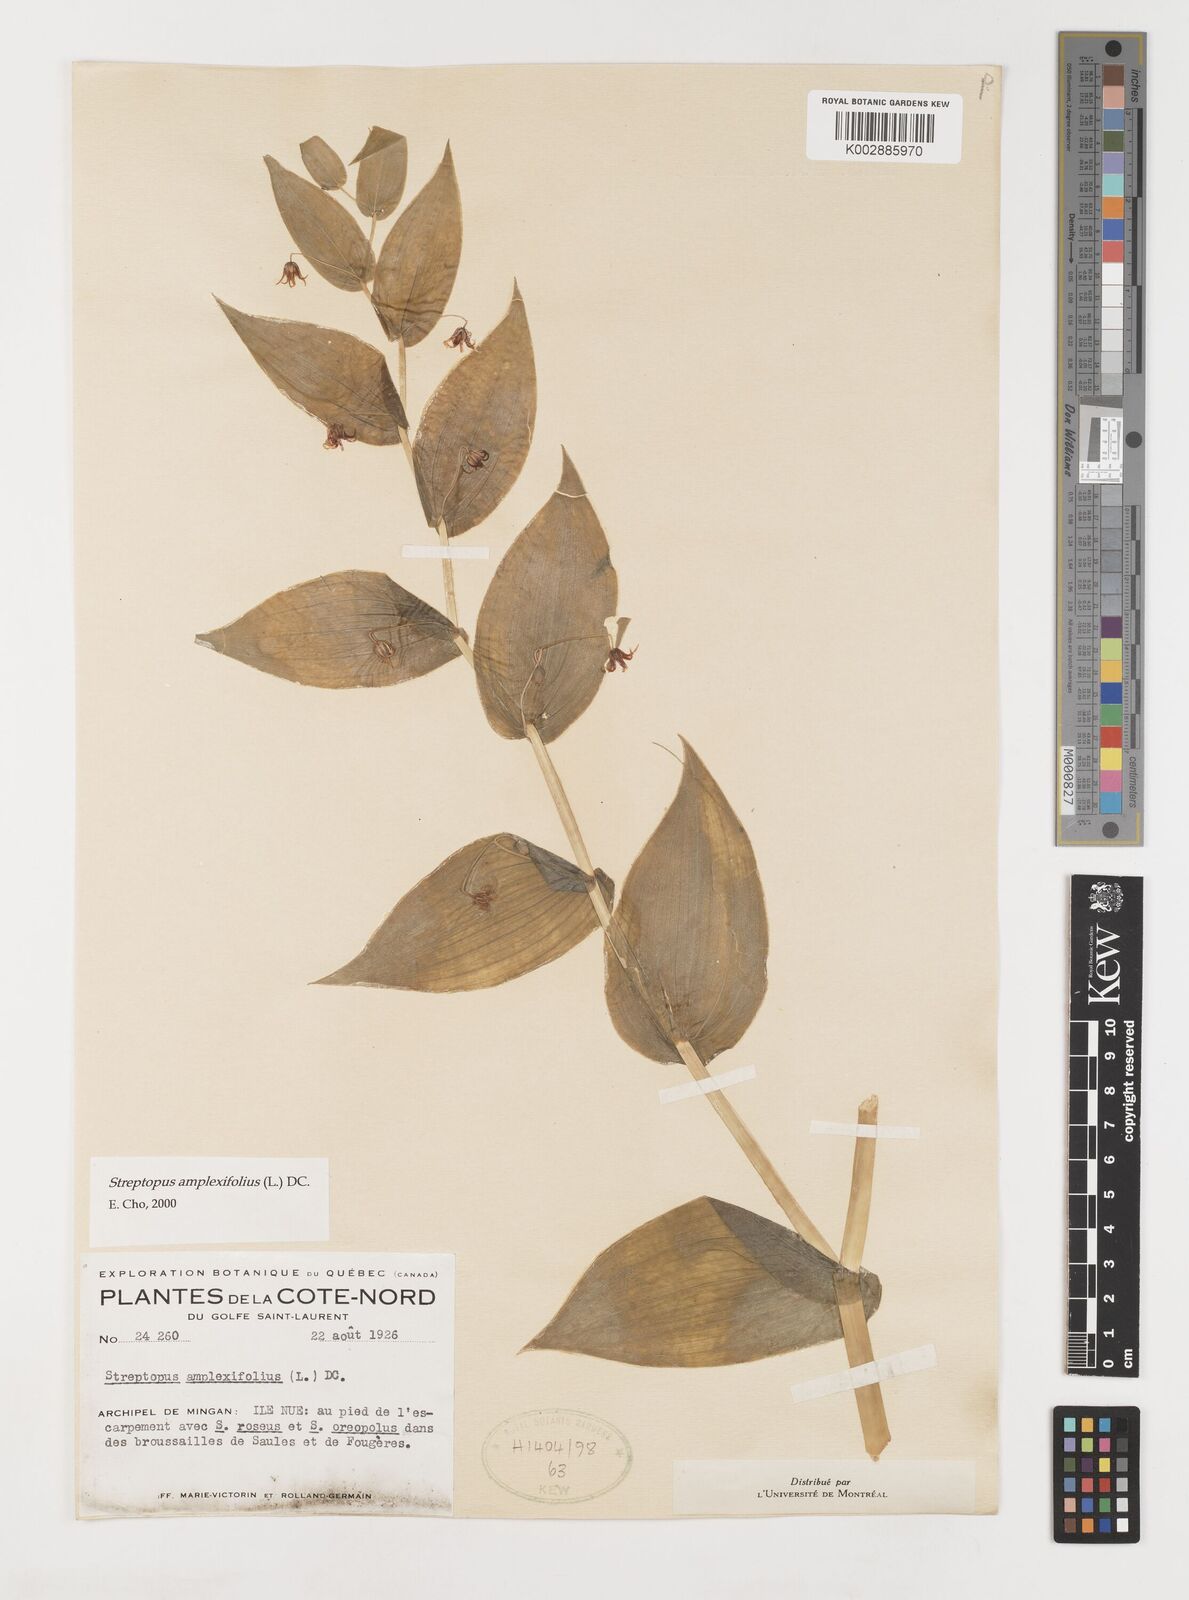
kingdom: Plantae
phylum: Tracheophyta
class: Liliopsida
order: Liliales
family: Liliaceae
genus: Streptopus
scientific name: Streptopus amplexifolius
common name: Clasp twisted stalk
